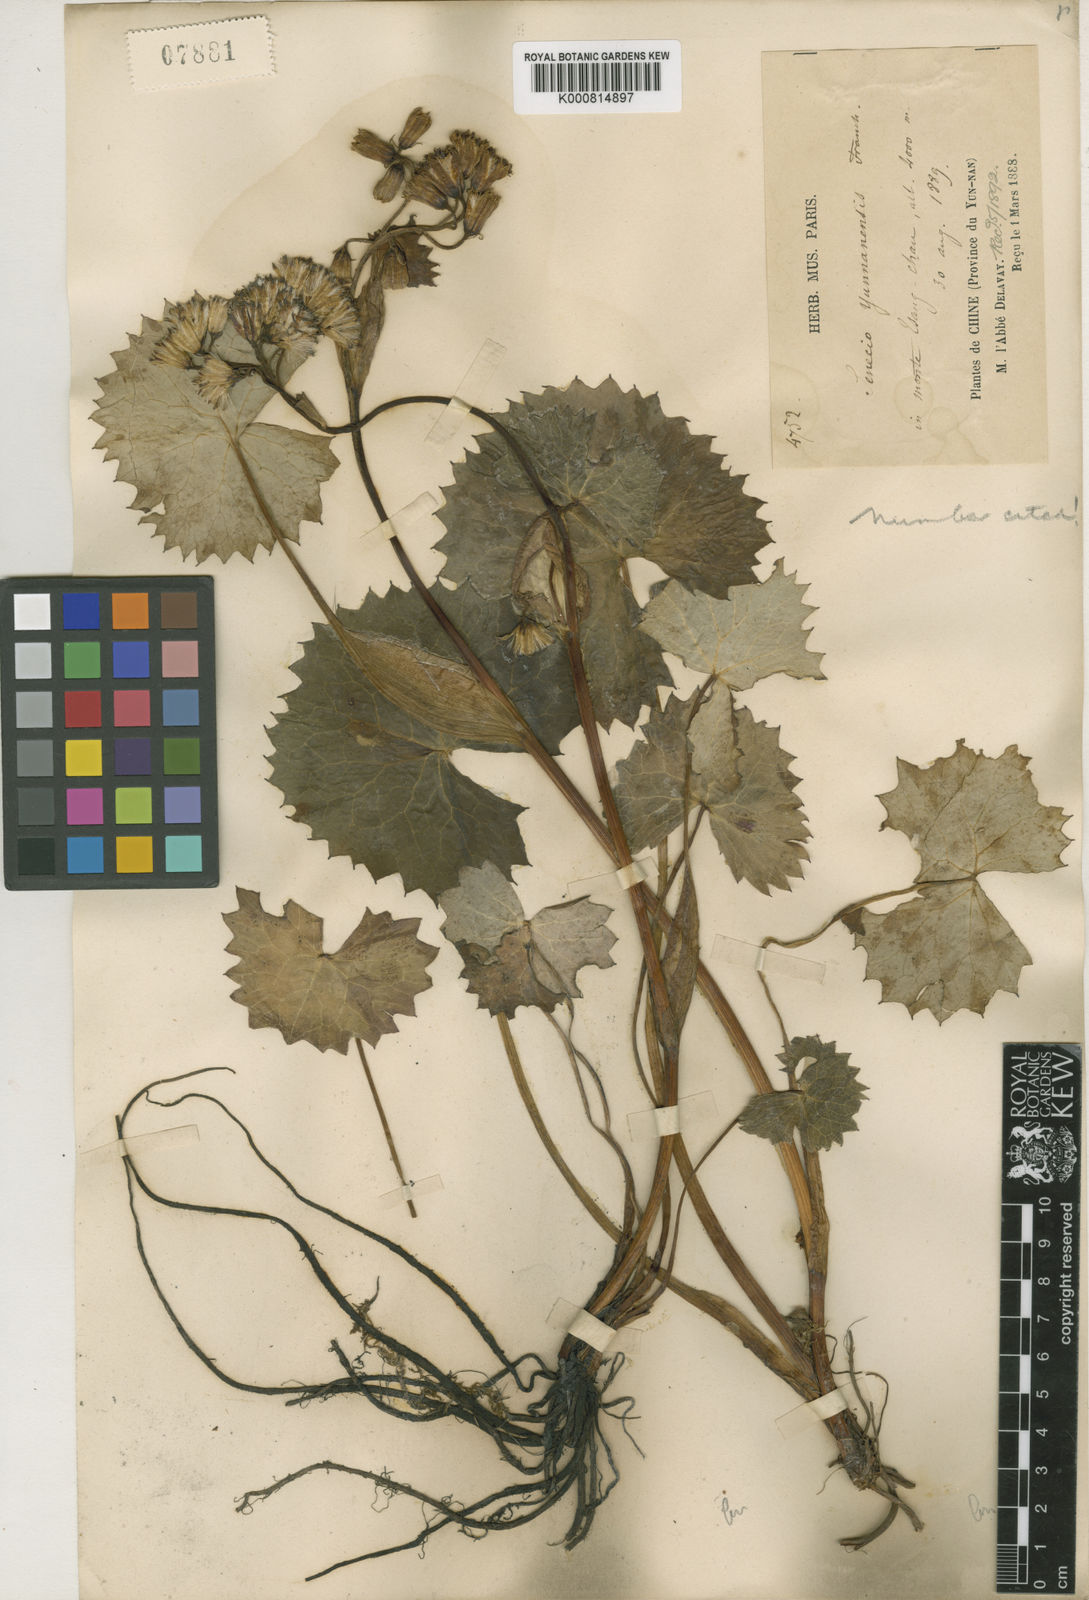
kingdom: Plantae
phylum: Tracheophyta
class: Magnoliopsida
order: Asterales
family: Asteraceae
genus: Ligularia
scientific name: Ligularia yunnanensis
